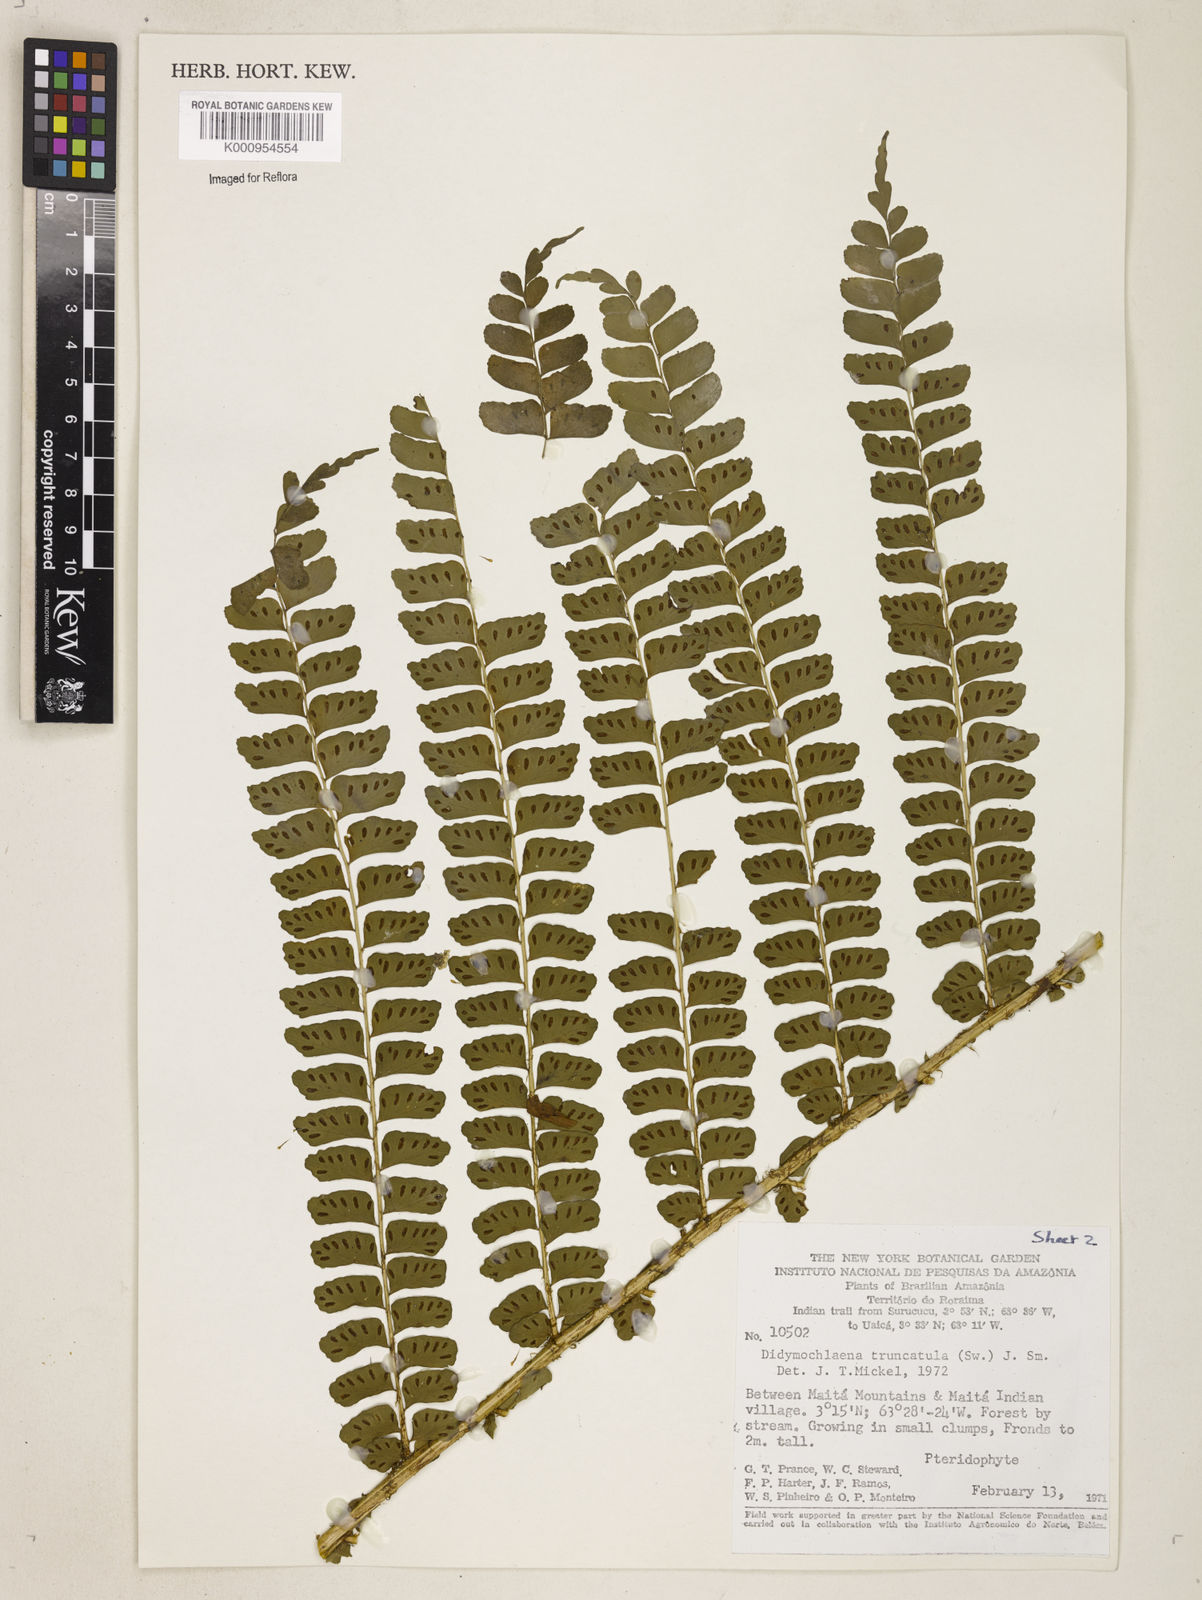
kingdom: Plantae
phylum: Tracheophyta
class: Polypodiopsida
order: Polypodiales
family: Didymochlaenaceae
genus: Didymochlaena
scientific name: Didymochlaena truncatula
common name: Mahogany fern
